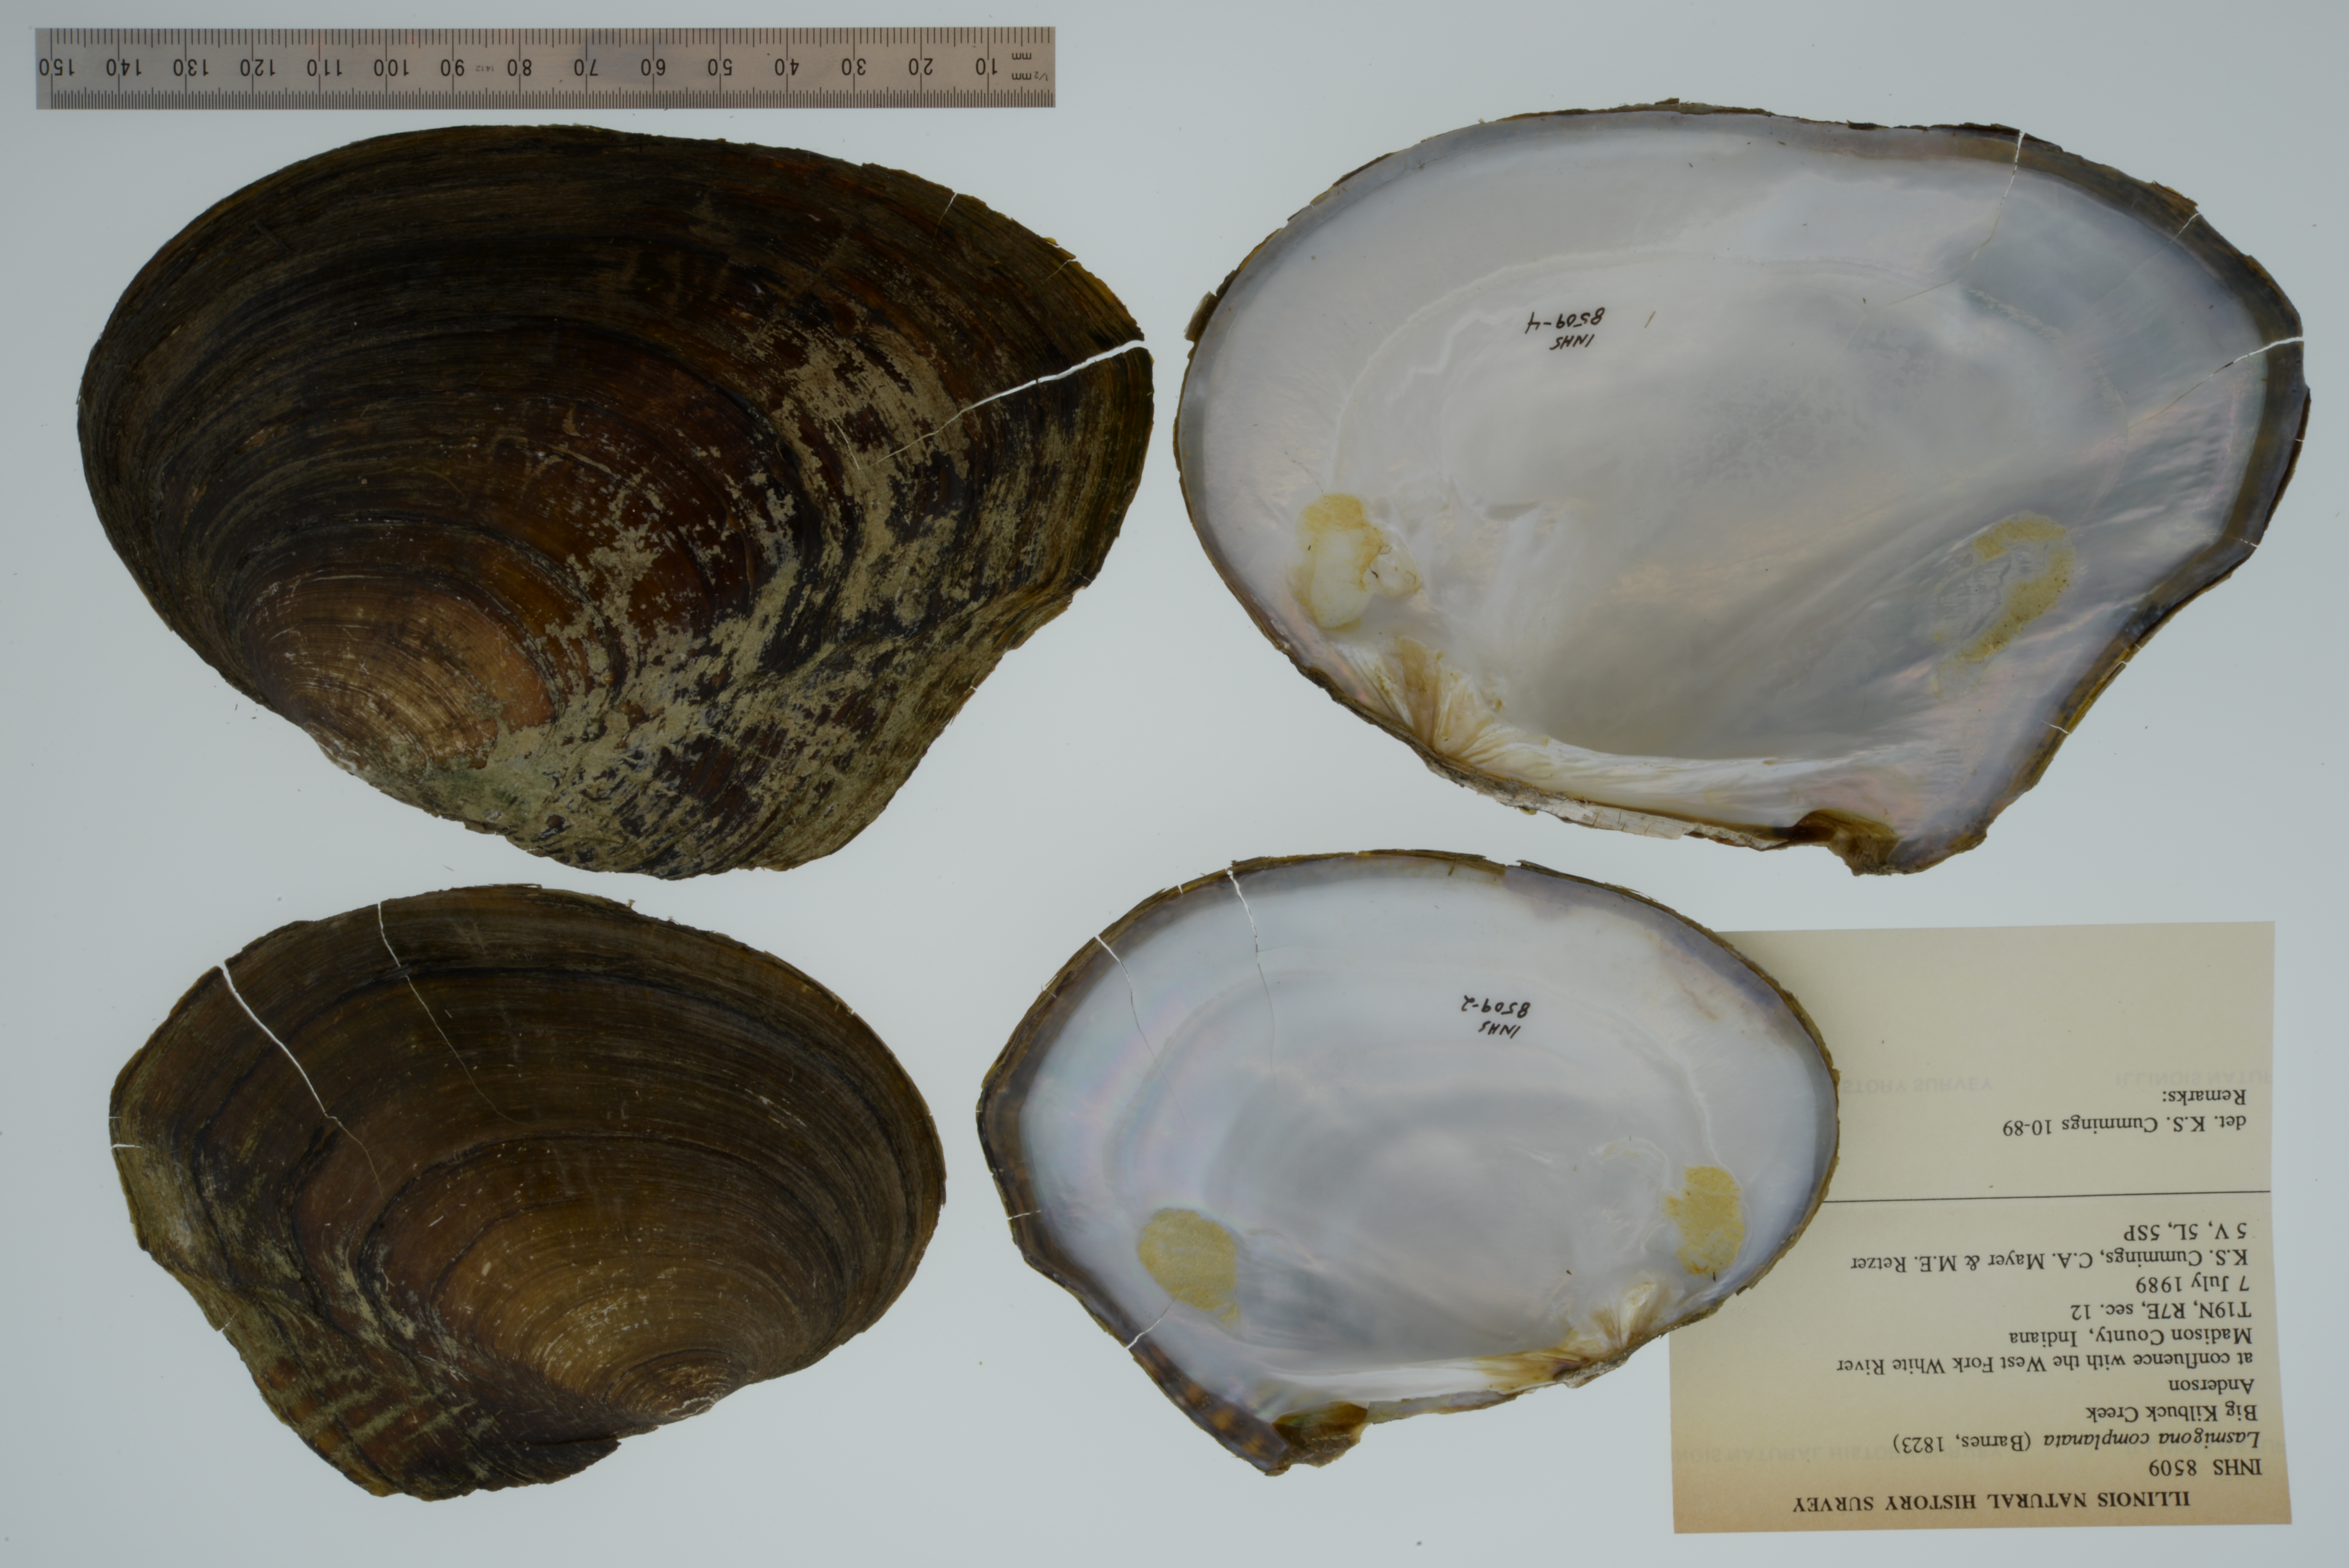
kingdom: Animalia
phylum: Mollusca
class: Bivalvia
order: Unionida
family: Unionidae
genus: Lasmigona
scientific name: Lasmigona complanata
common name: White heelsplitter
